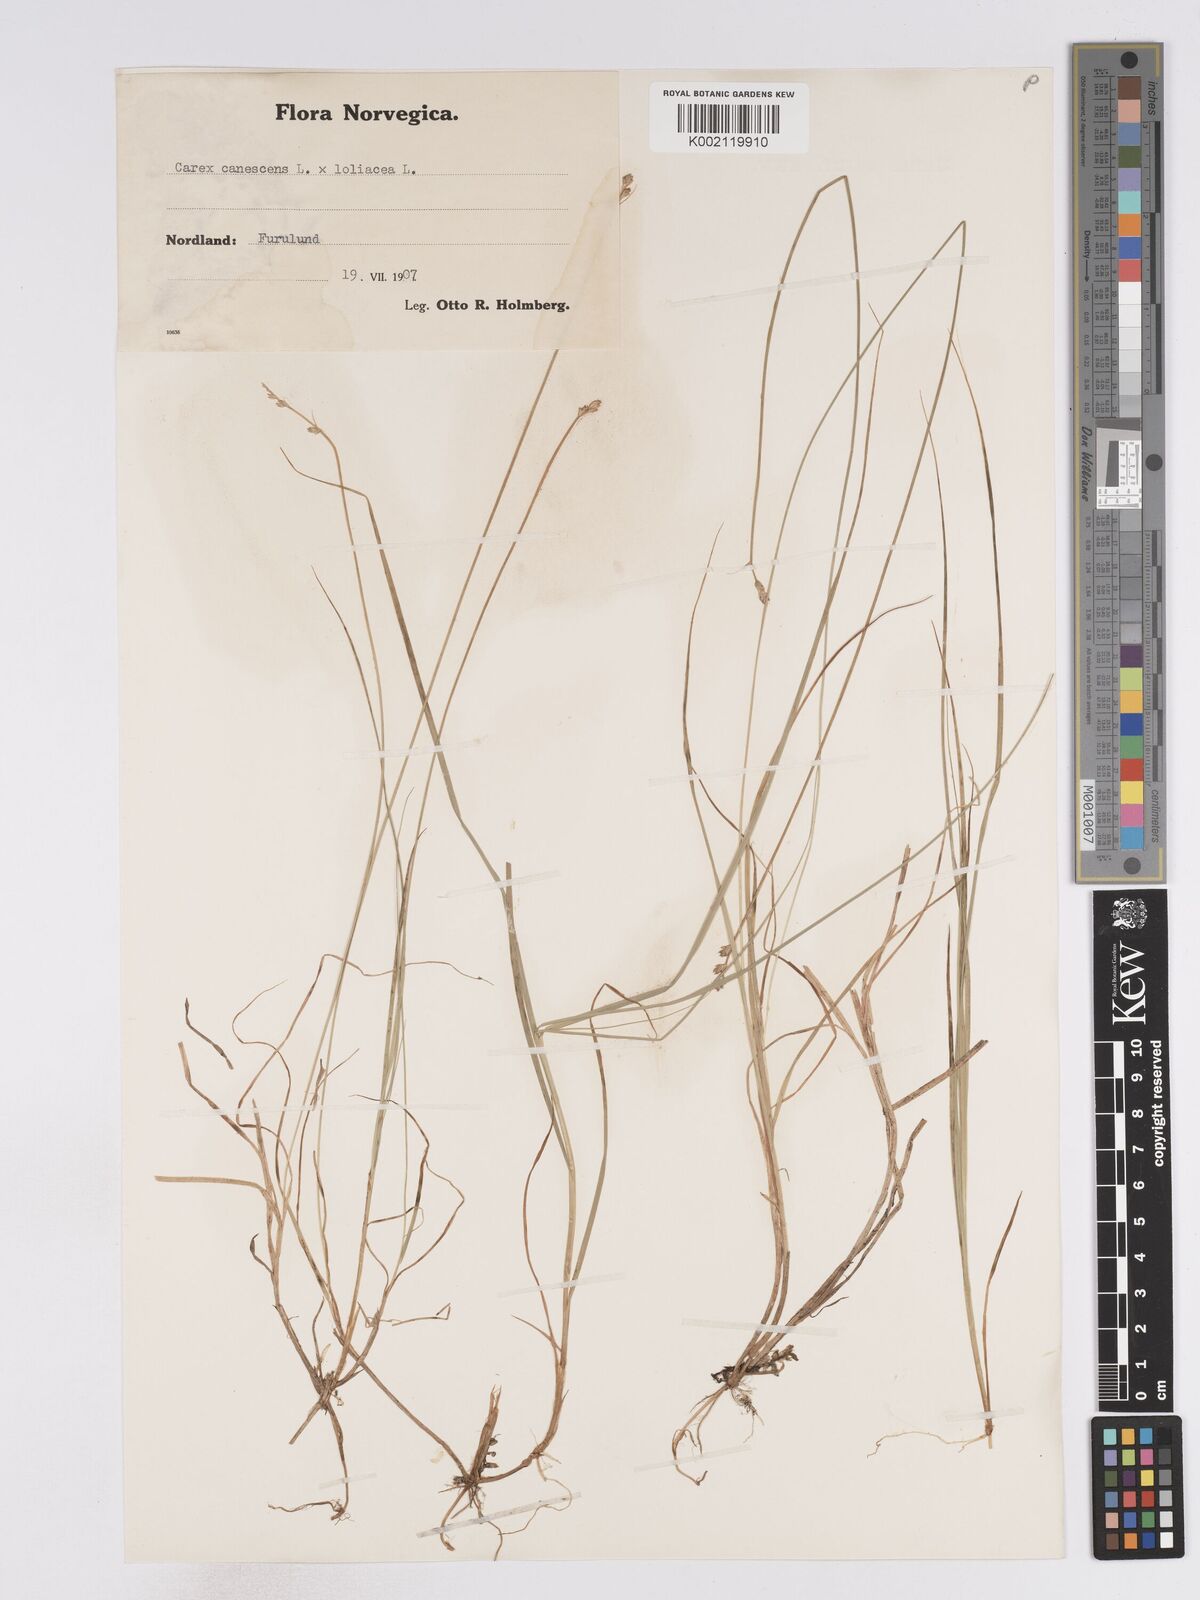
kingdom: Plantae
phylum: Tracheophyta
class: Liliopsida
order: Poales
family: Cyperaceae
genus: Carex
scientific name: Carex curta
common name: White sedge
